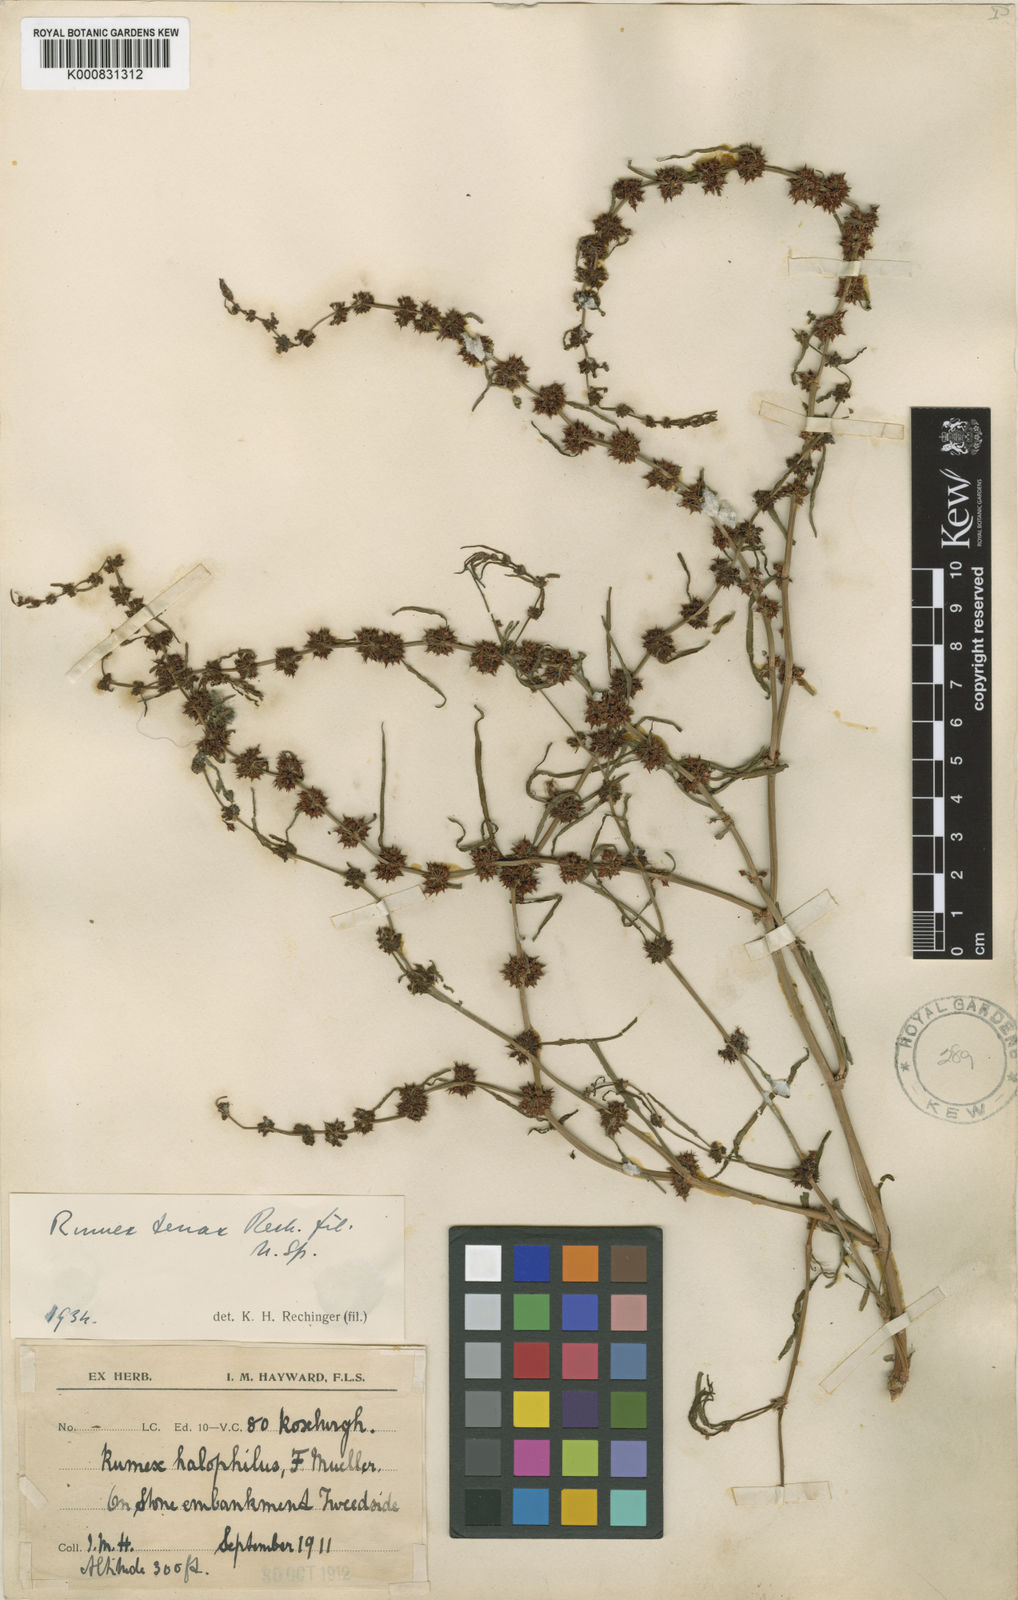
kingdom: Plantae
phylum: Tracheophyta
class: Magnoliopsida
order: Caryophyllales
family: Polygonaceae
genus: Rumex
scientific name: Rumex tenax
